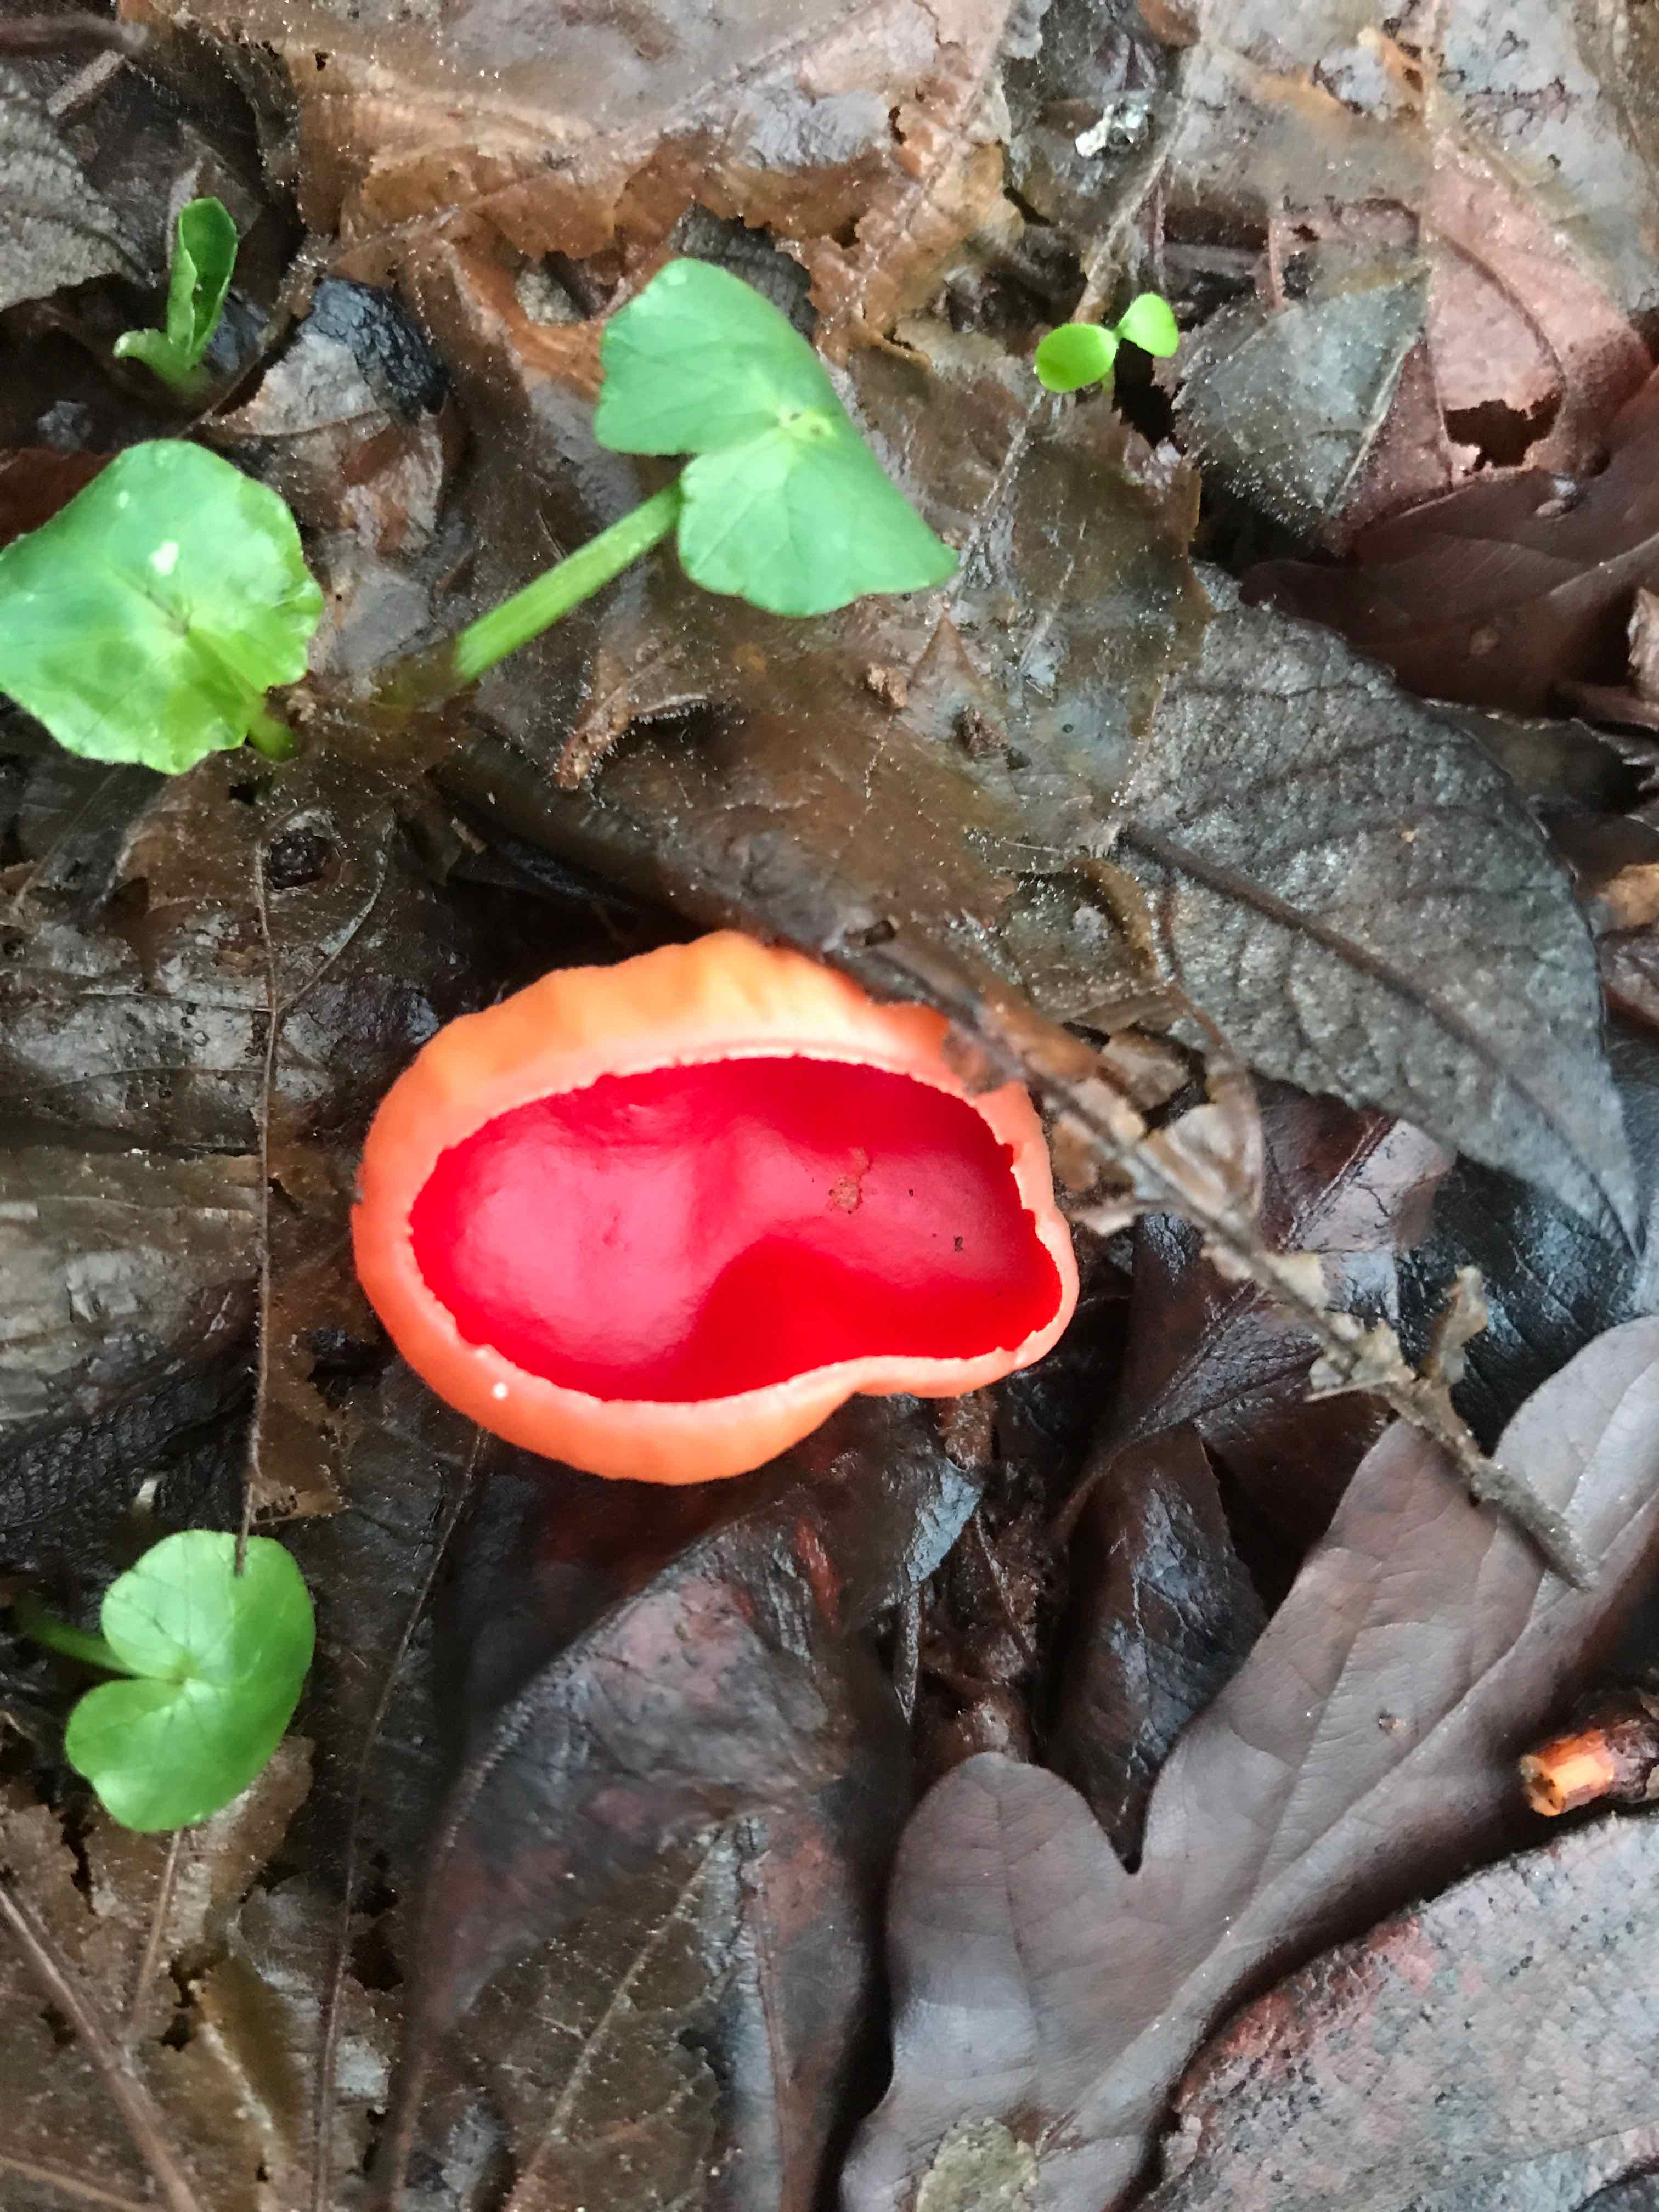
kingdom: Fungi
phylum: Ascomycota
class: Pezizomycetes
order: Pezizales
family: Sarcoscyphaceae
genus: Sarcoscypha
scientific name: Sarcoscypha austriaca
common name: krølhåret pragtbæger
